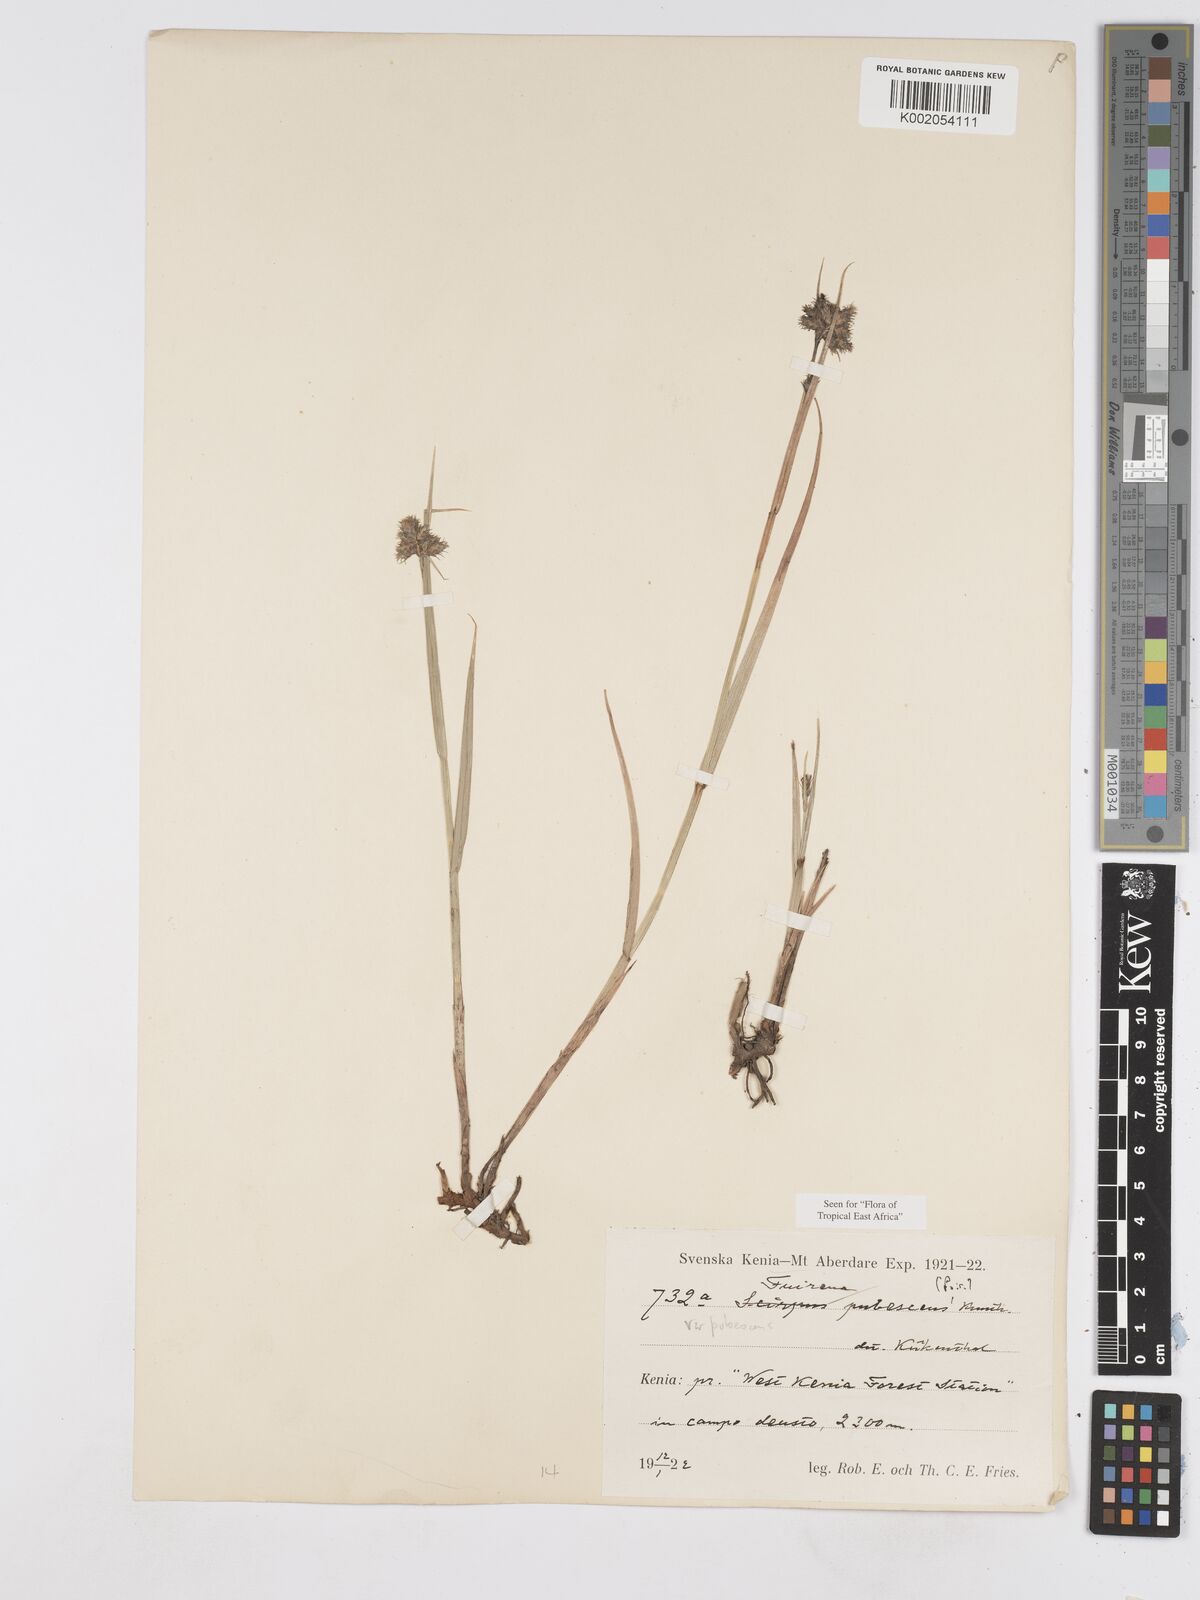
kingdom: Plantae
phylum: Tracheophyta
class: Liliopsida
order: Poales
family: Cyperaceae
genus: Fuirena
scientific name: Fuirena pubescens
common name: Hairy sedge
